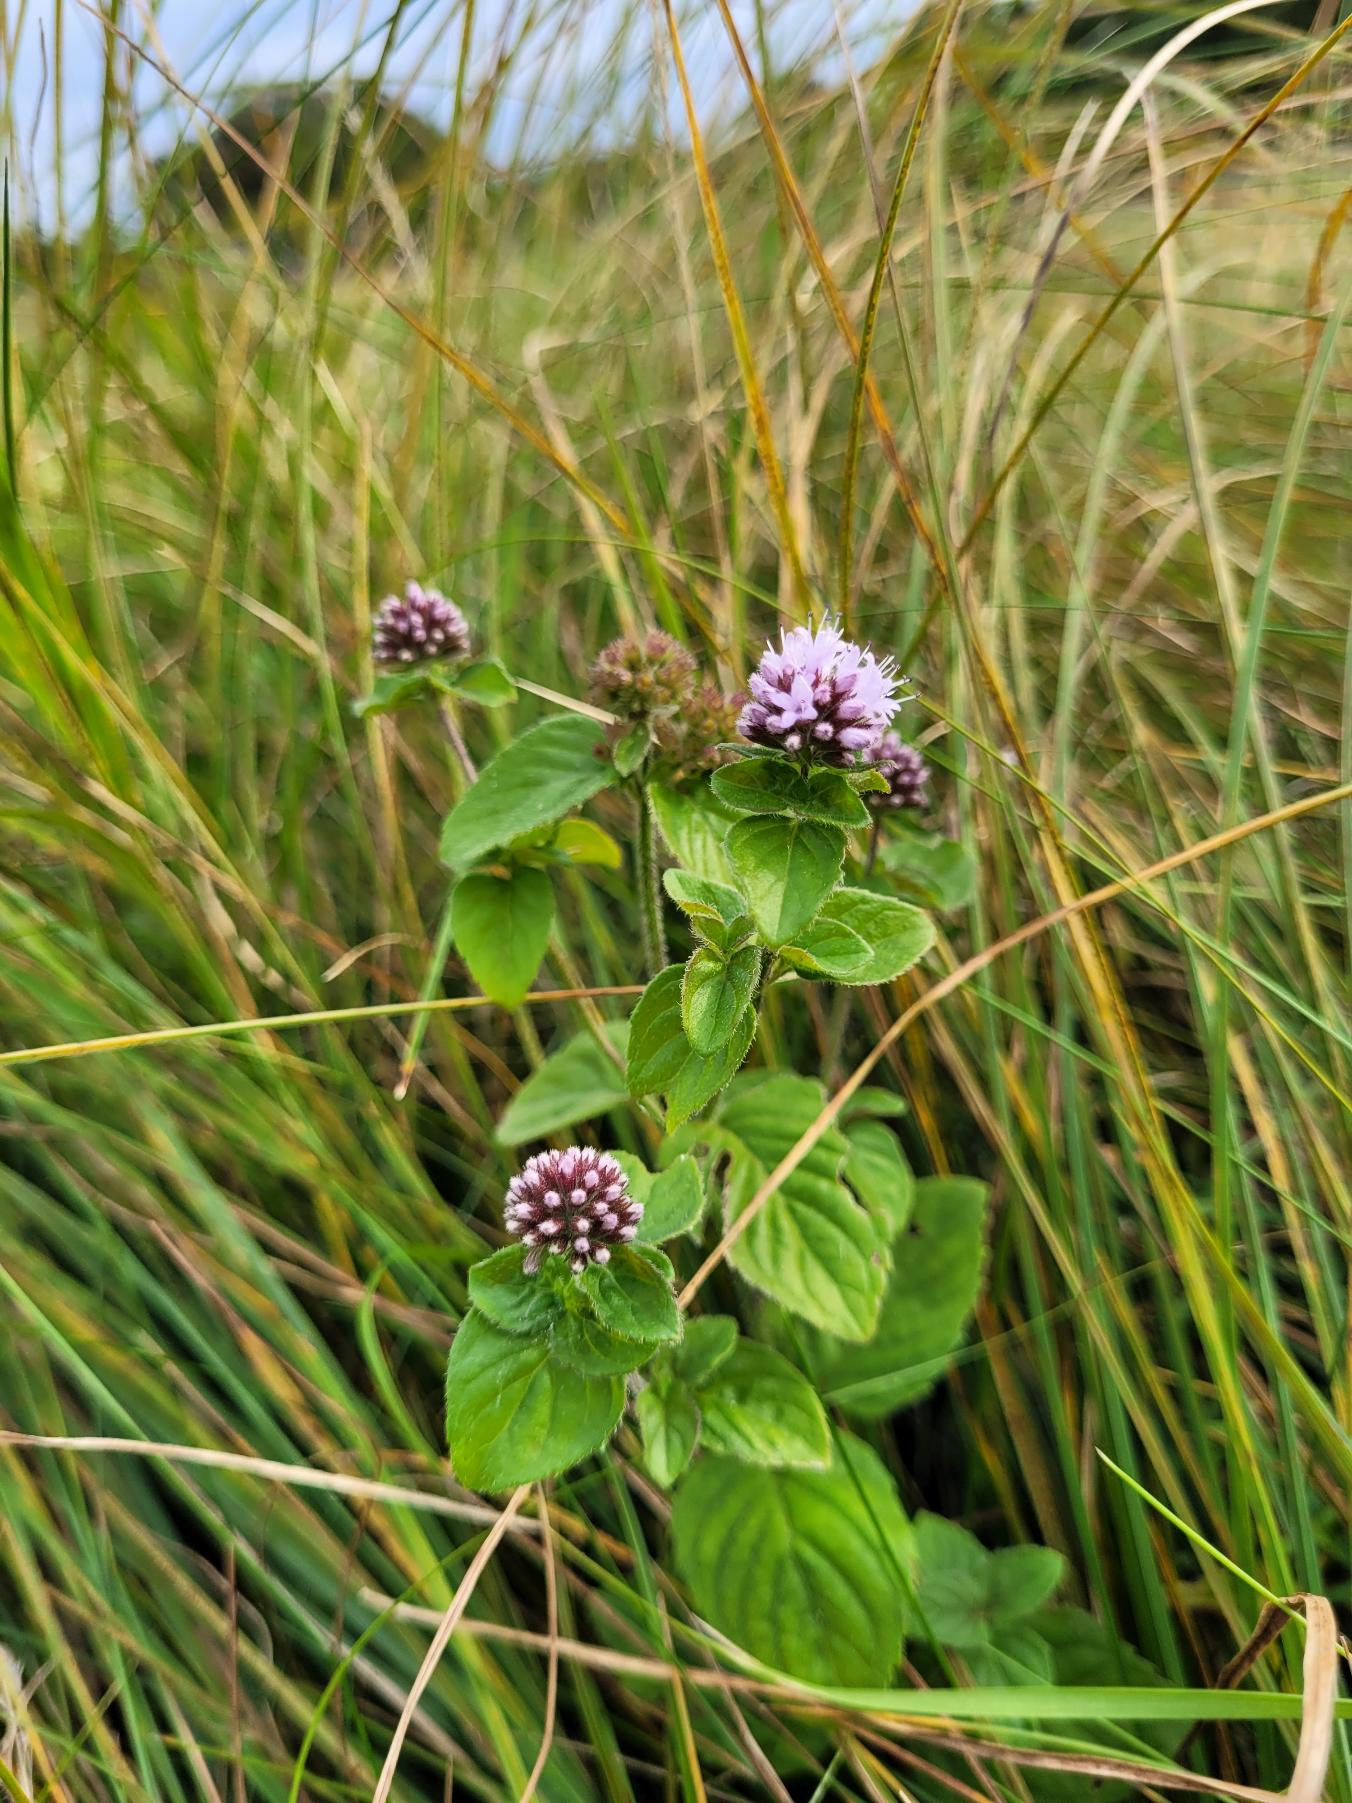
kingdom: Plantae
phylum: Tracheophyta
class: Magnoliopsida
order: Lamiales
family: Lamiaceae
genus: Mentha
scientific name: Mentha aquatica
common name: Vand-mynte
